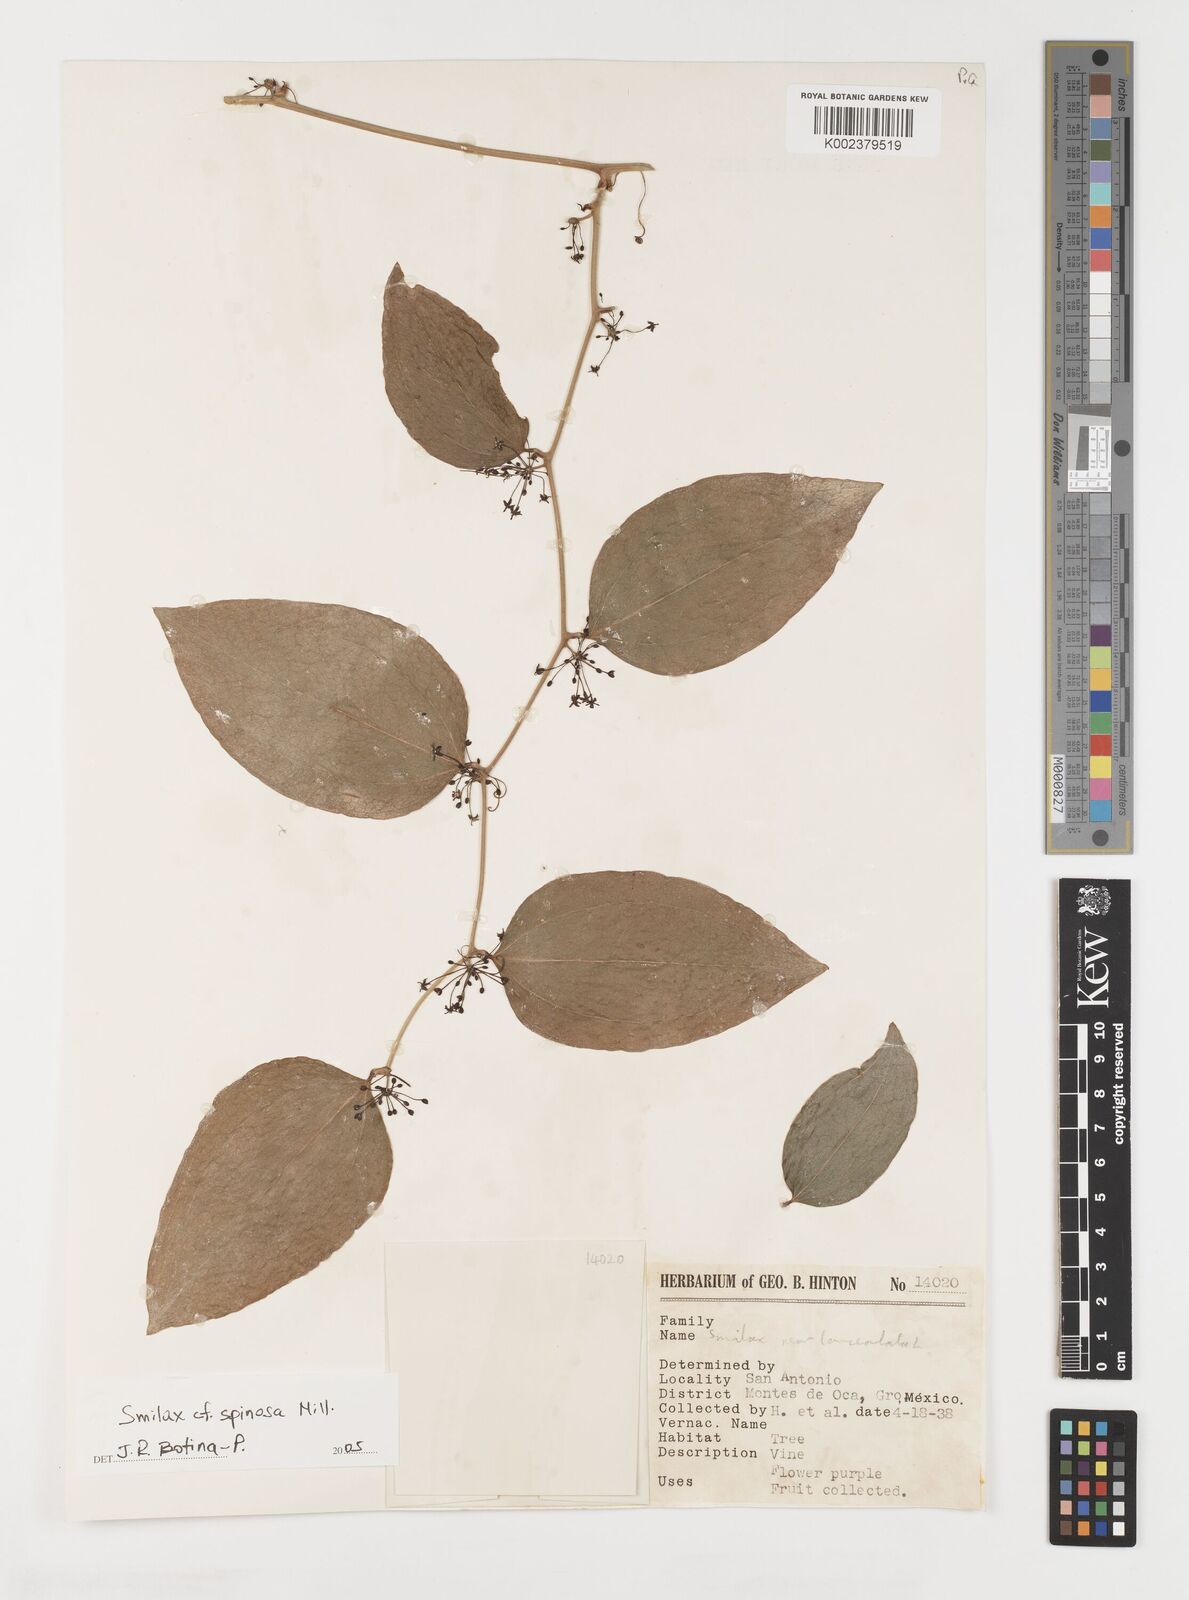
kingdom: Plantae
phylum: Tracheophyta
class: Liliopsida
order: Liliales
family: Smilacaceae
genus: Smilax
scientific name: Smilax spinosa
